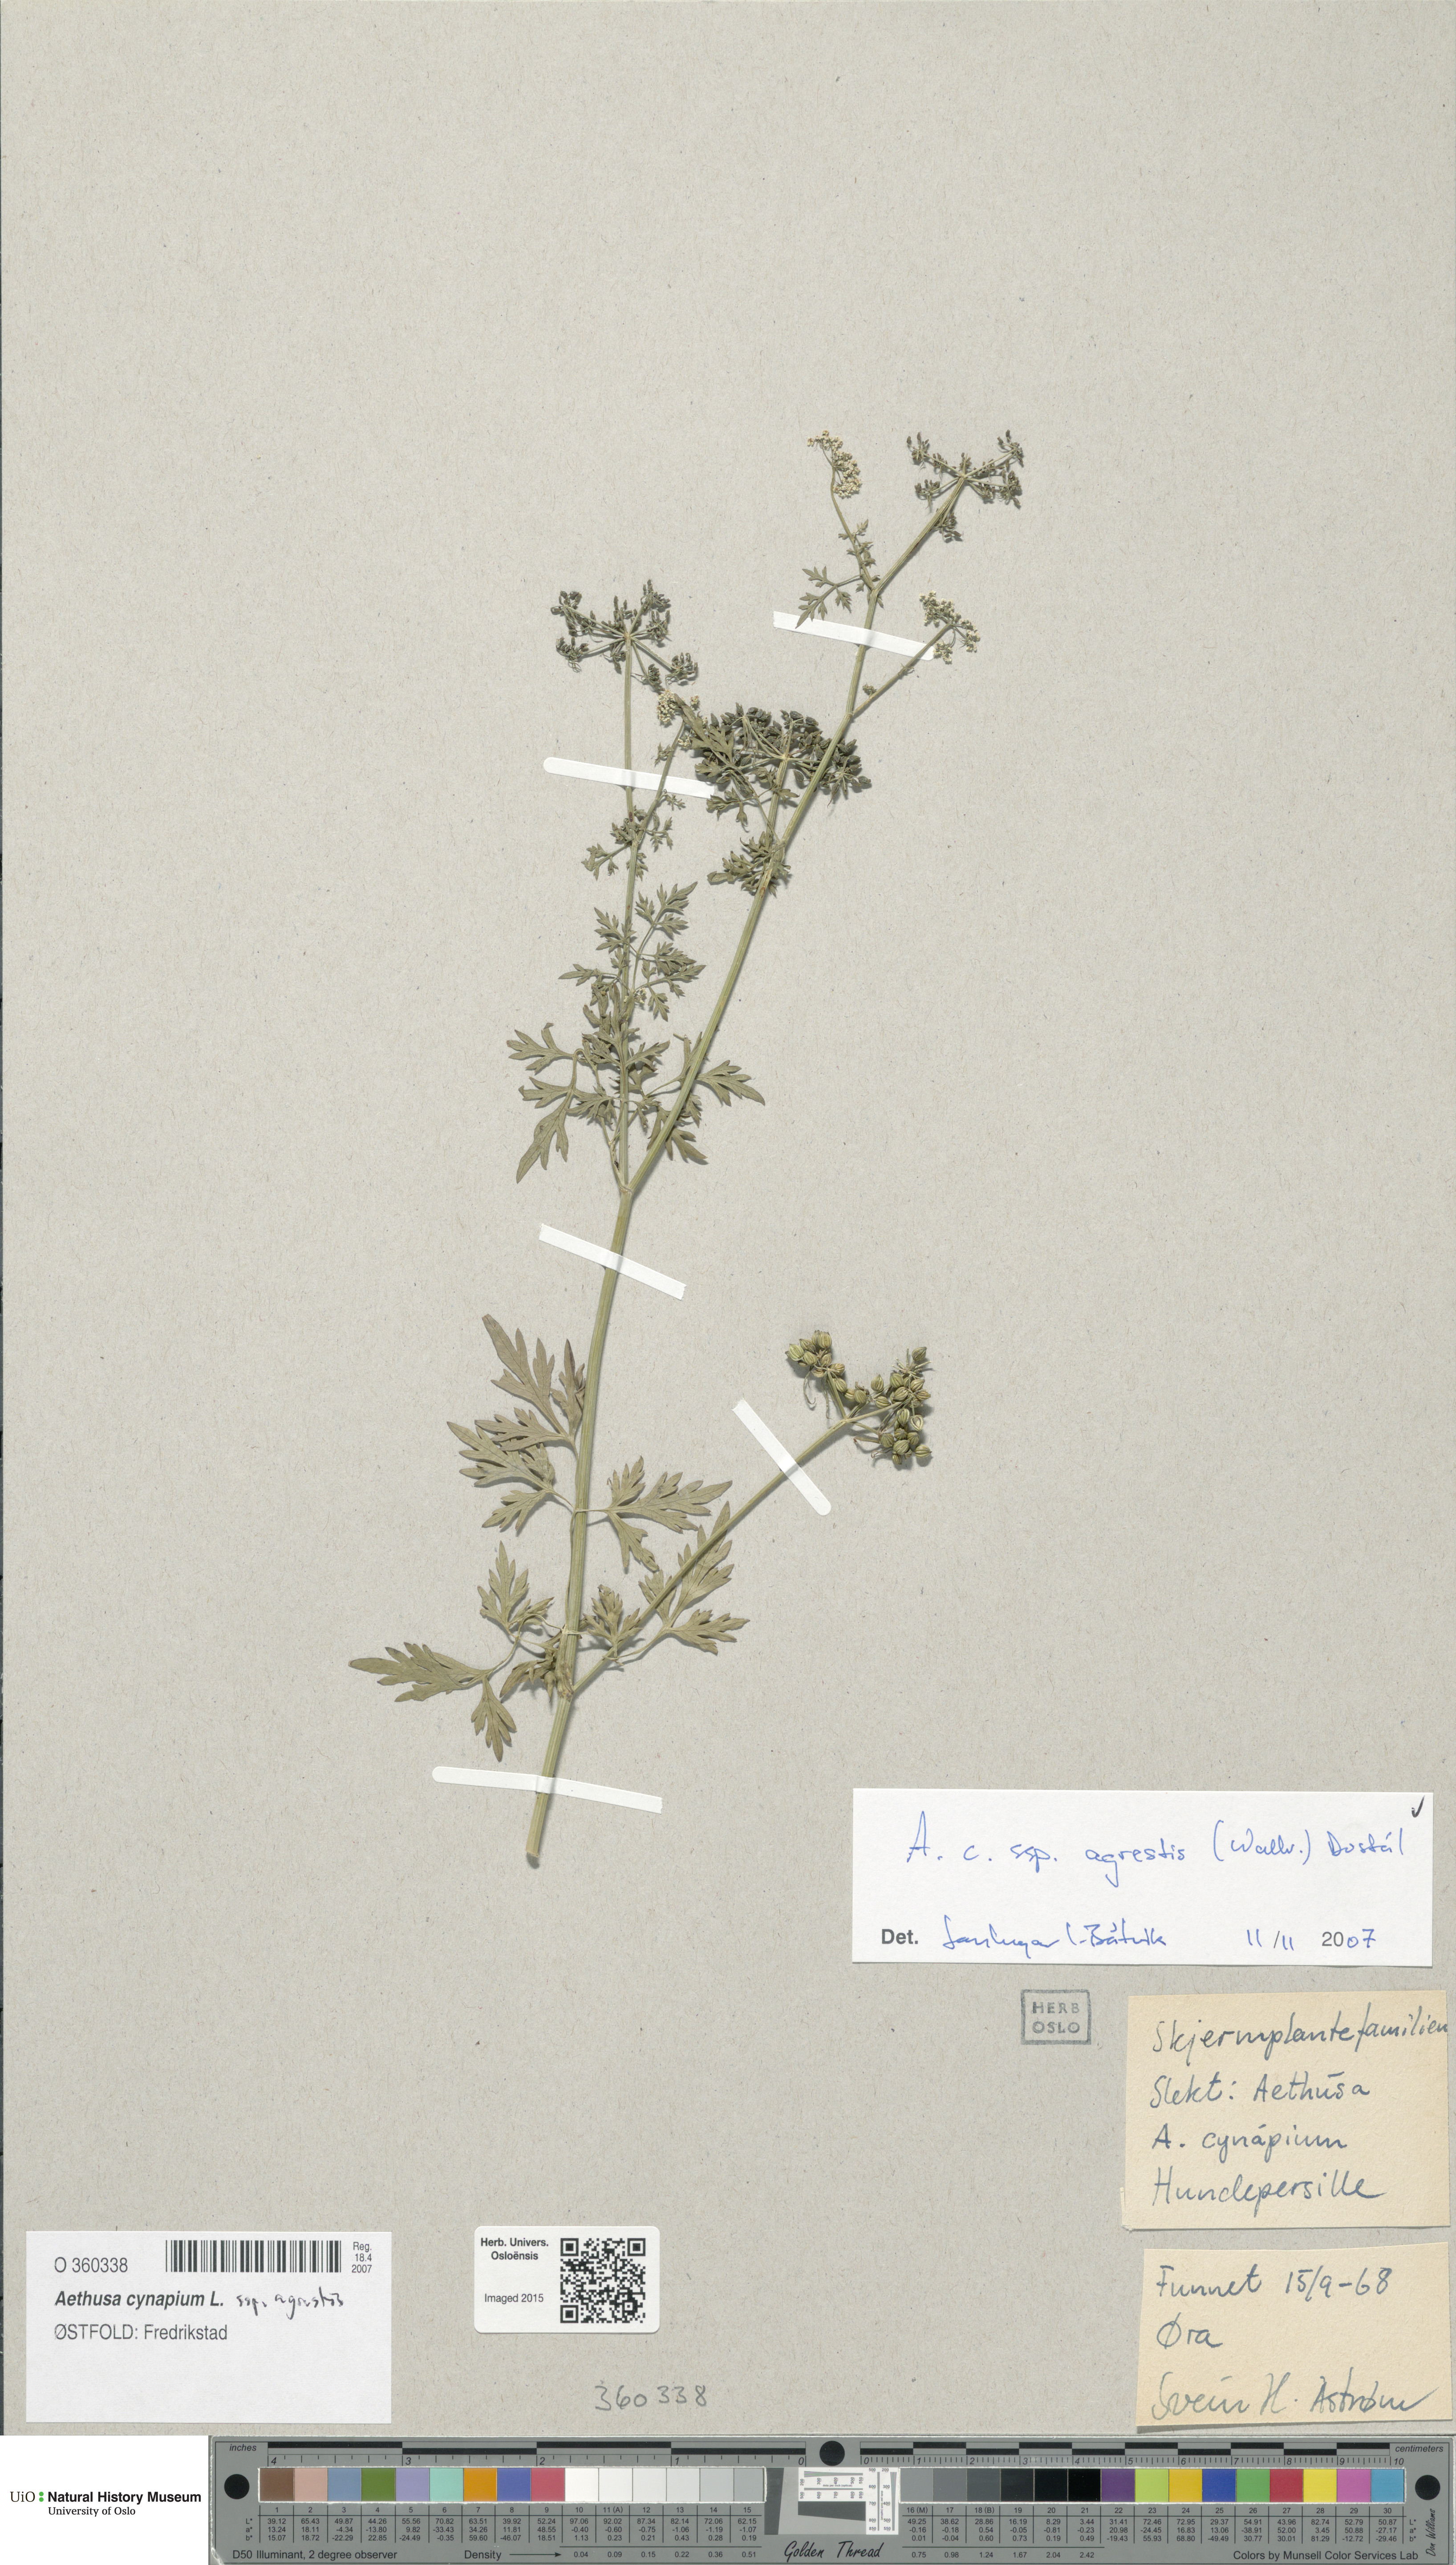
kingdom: Plantae
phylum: Tracheophyta
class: Magnoliopsida
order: Apiales
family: Apiaceae
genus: Aethusa
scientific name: Aethusa cynapium
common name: Fool's parsley
